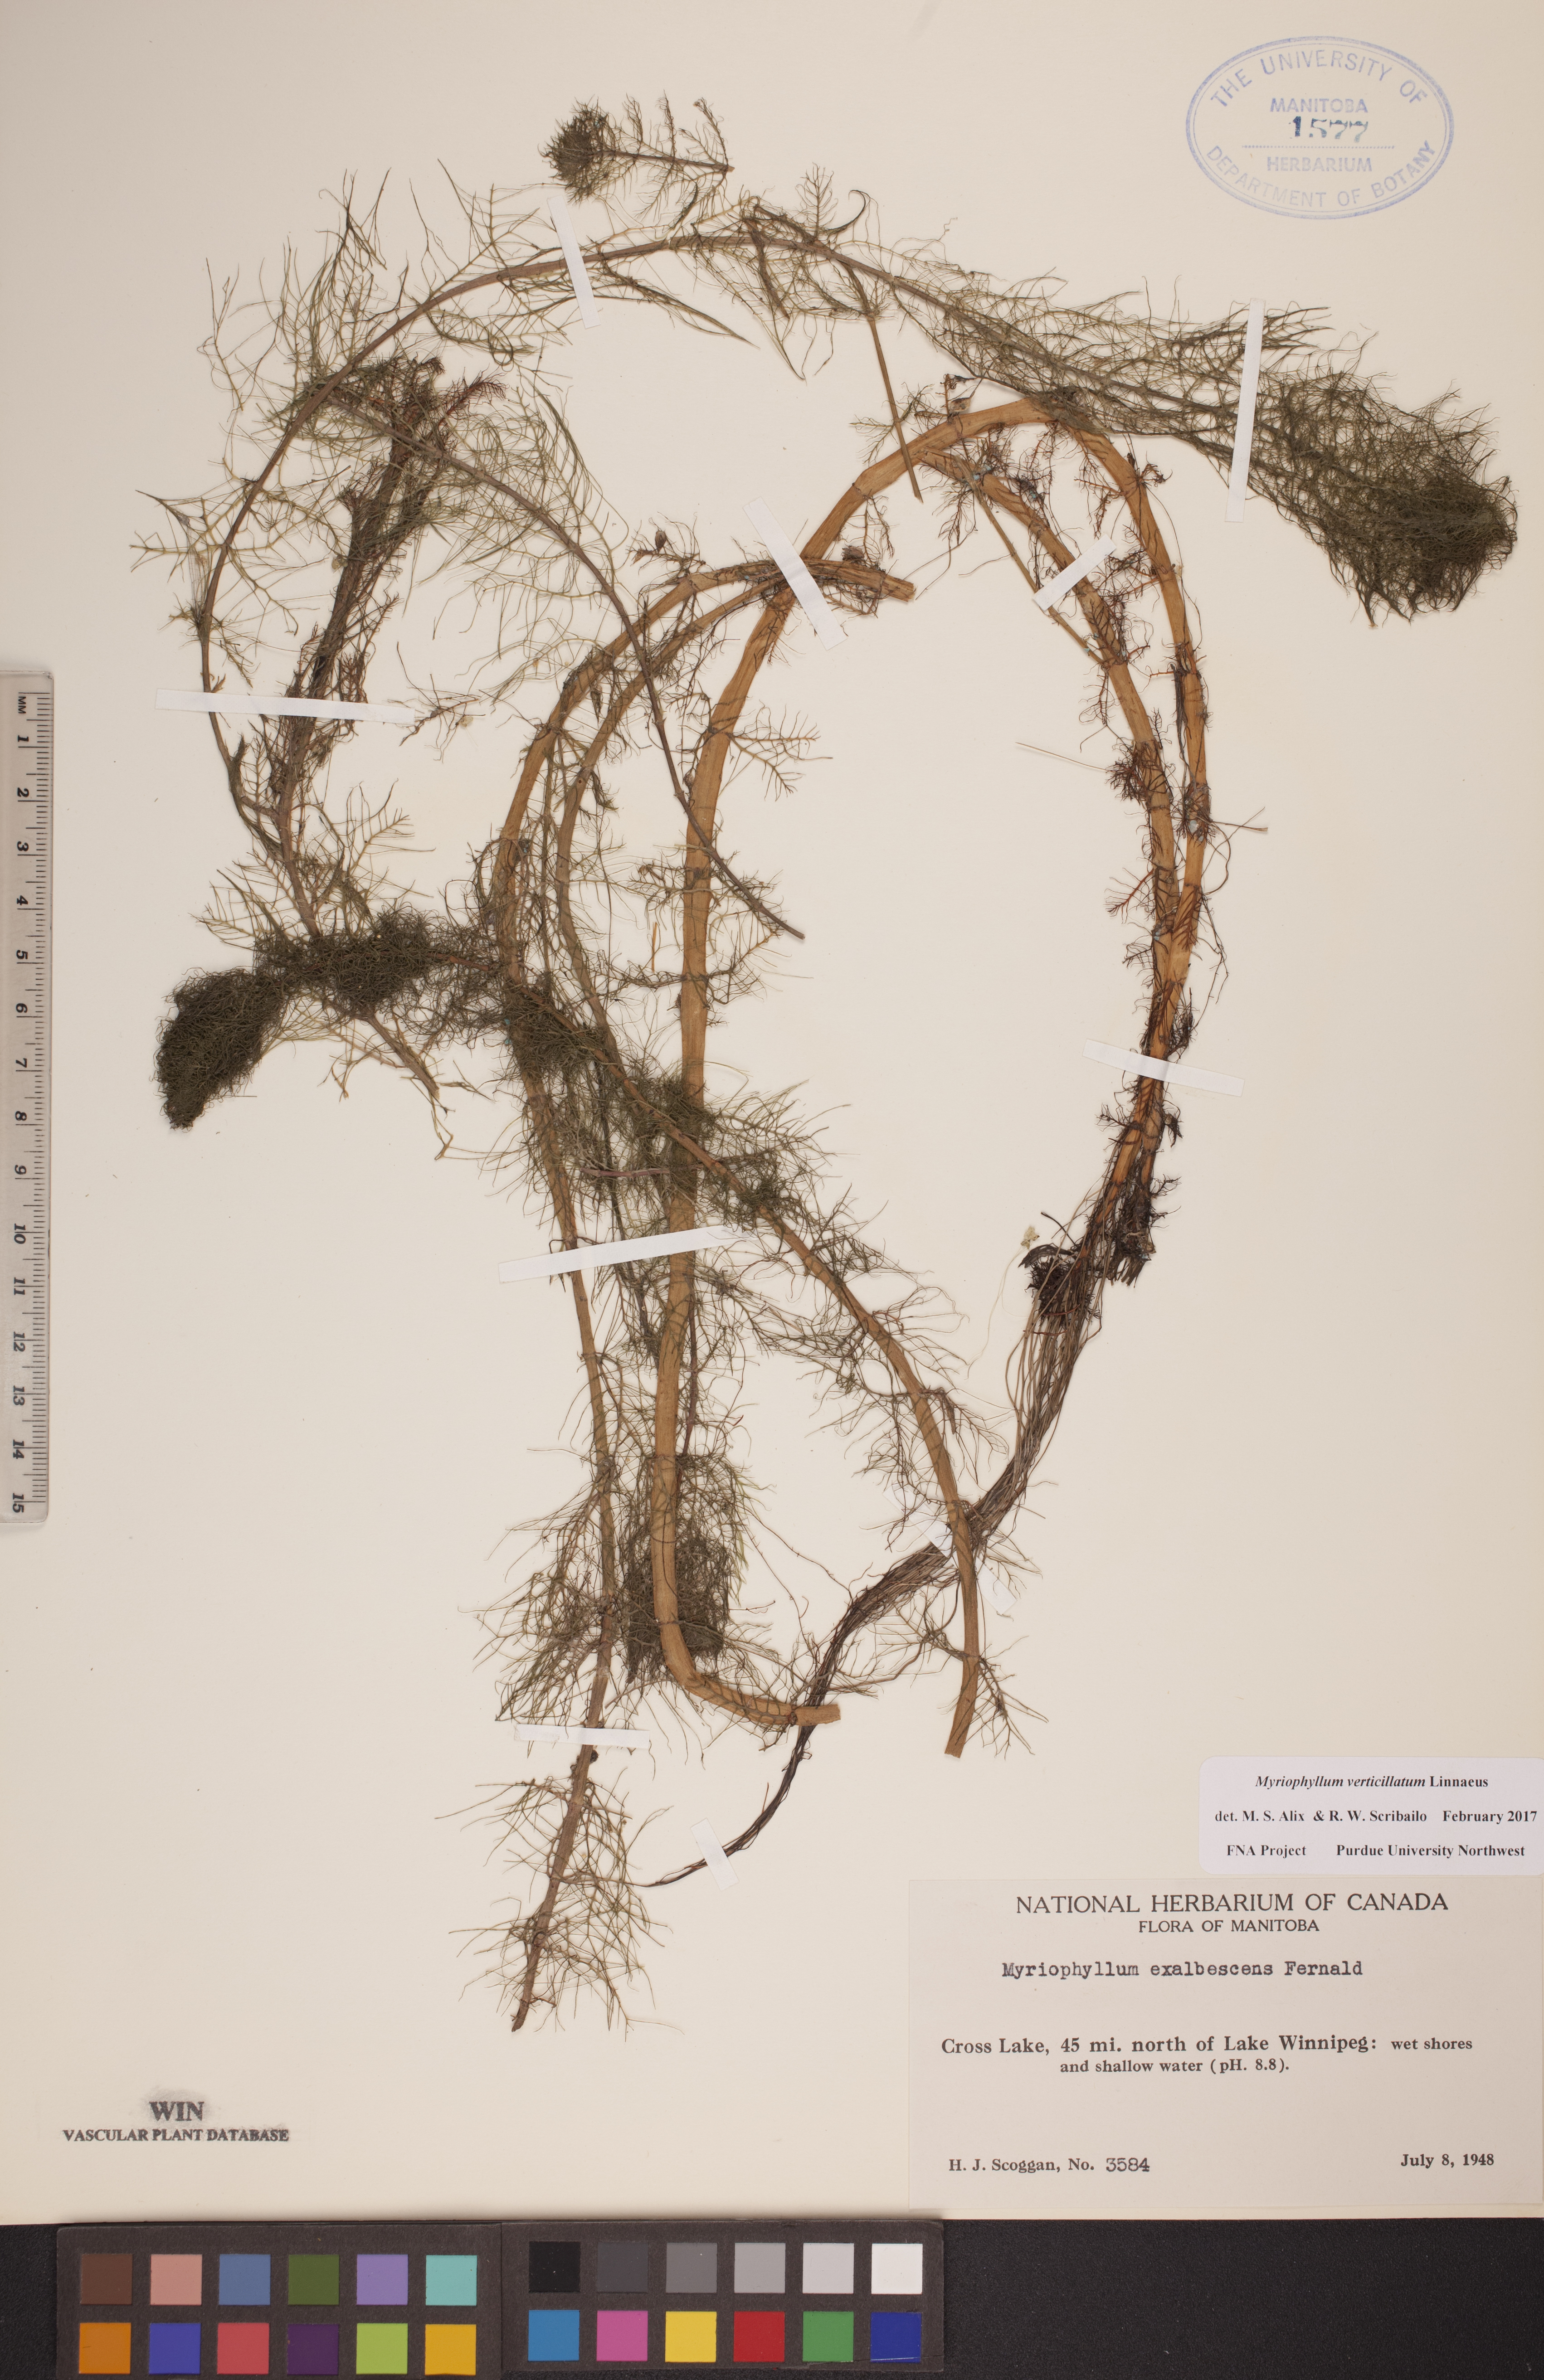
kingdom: Plantae
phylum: Tracheophyta
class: Magnoliopsida
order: Saxifragales
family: Haloragaceae
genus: Myriophyllum
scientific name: Myriophyllum verticillatum
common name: Whorled water-milfoil
